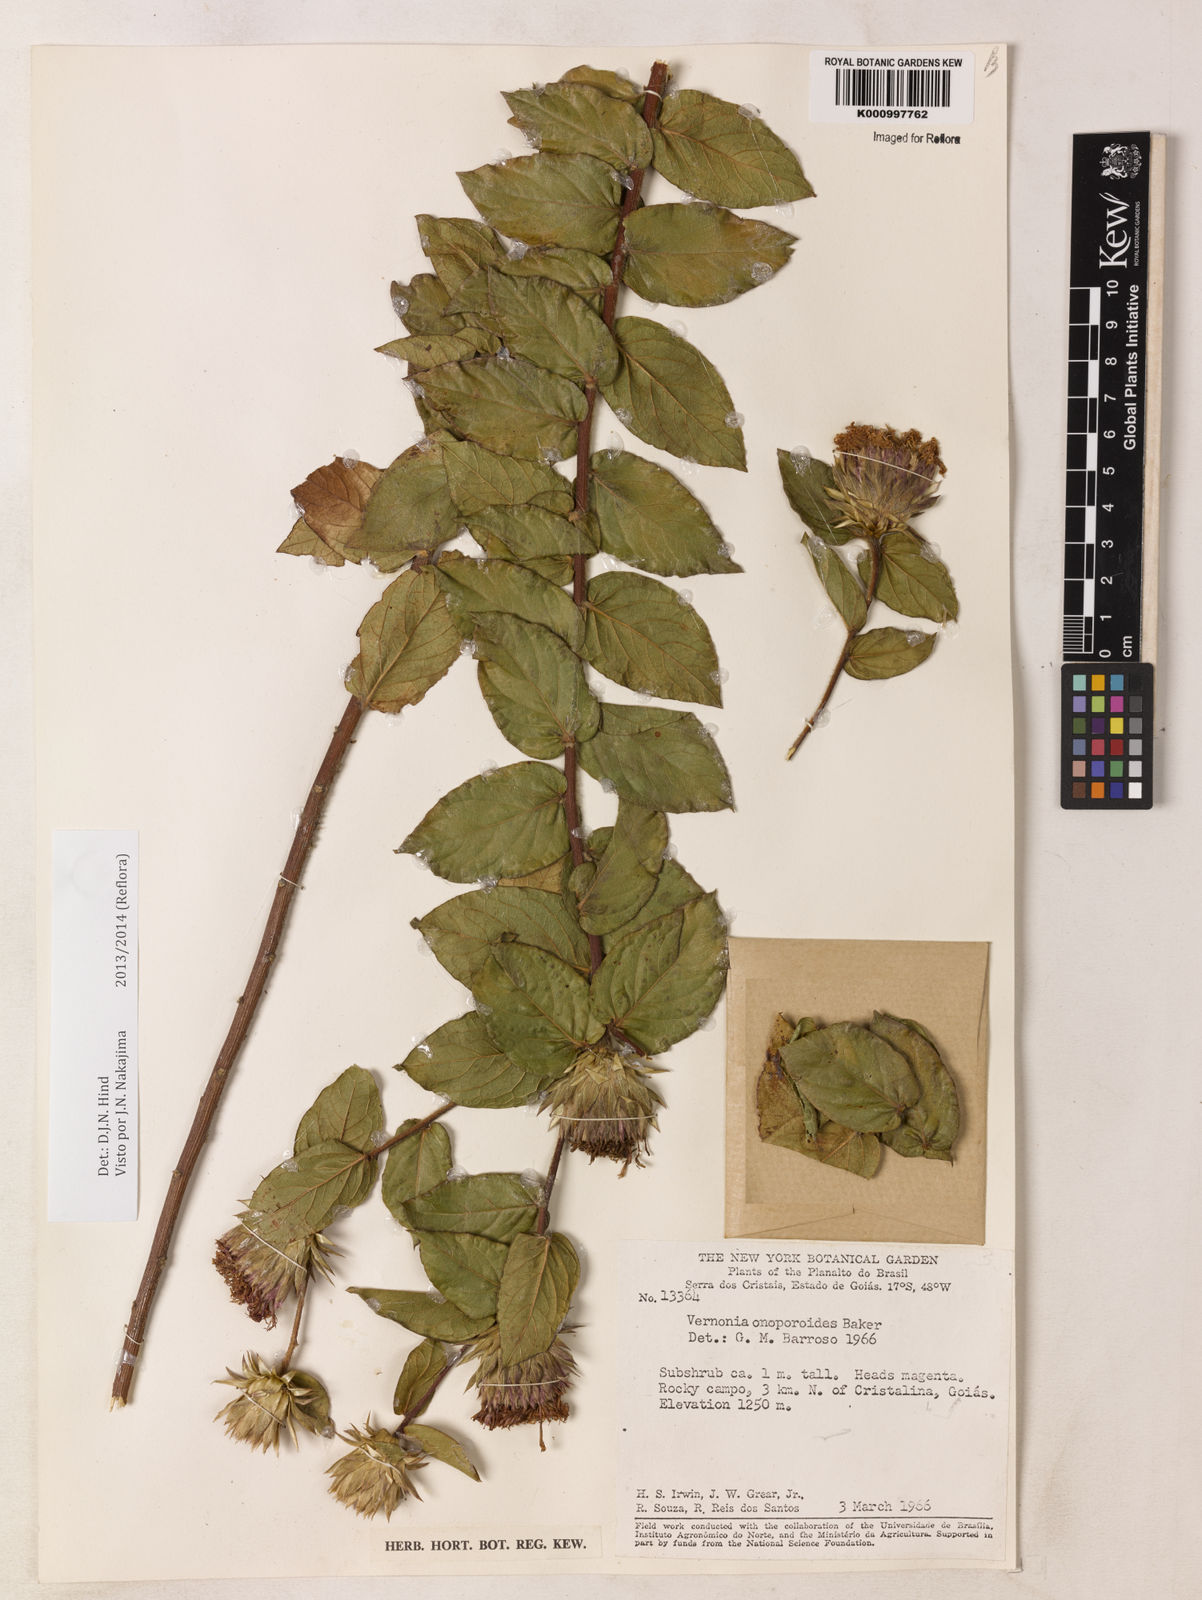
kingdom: Plantae
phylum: Tracheophyta
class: Magnoliopsida
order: Asterales
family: Asteraceae
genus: Lessingianthus
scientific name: Lessingianthus onopordioides
